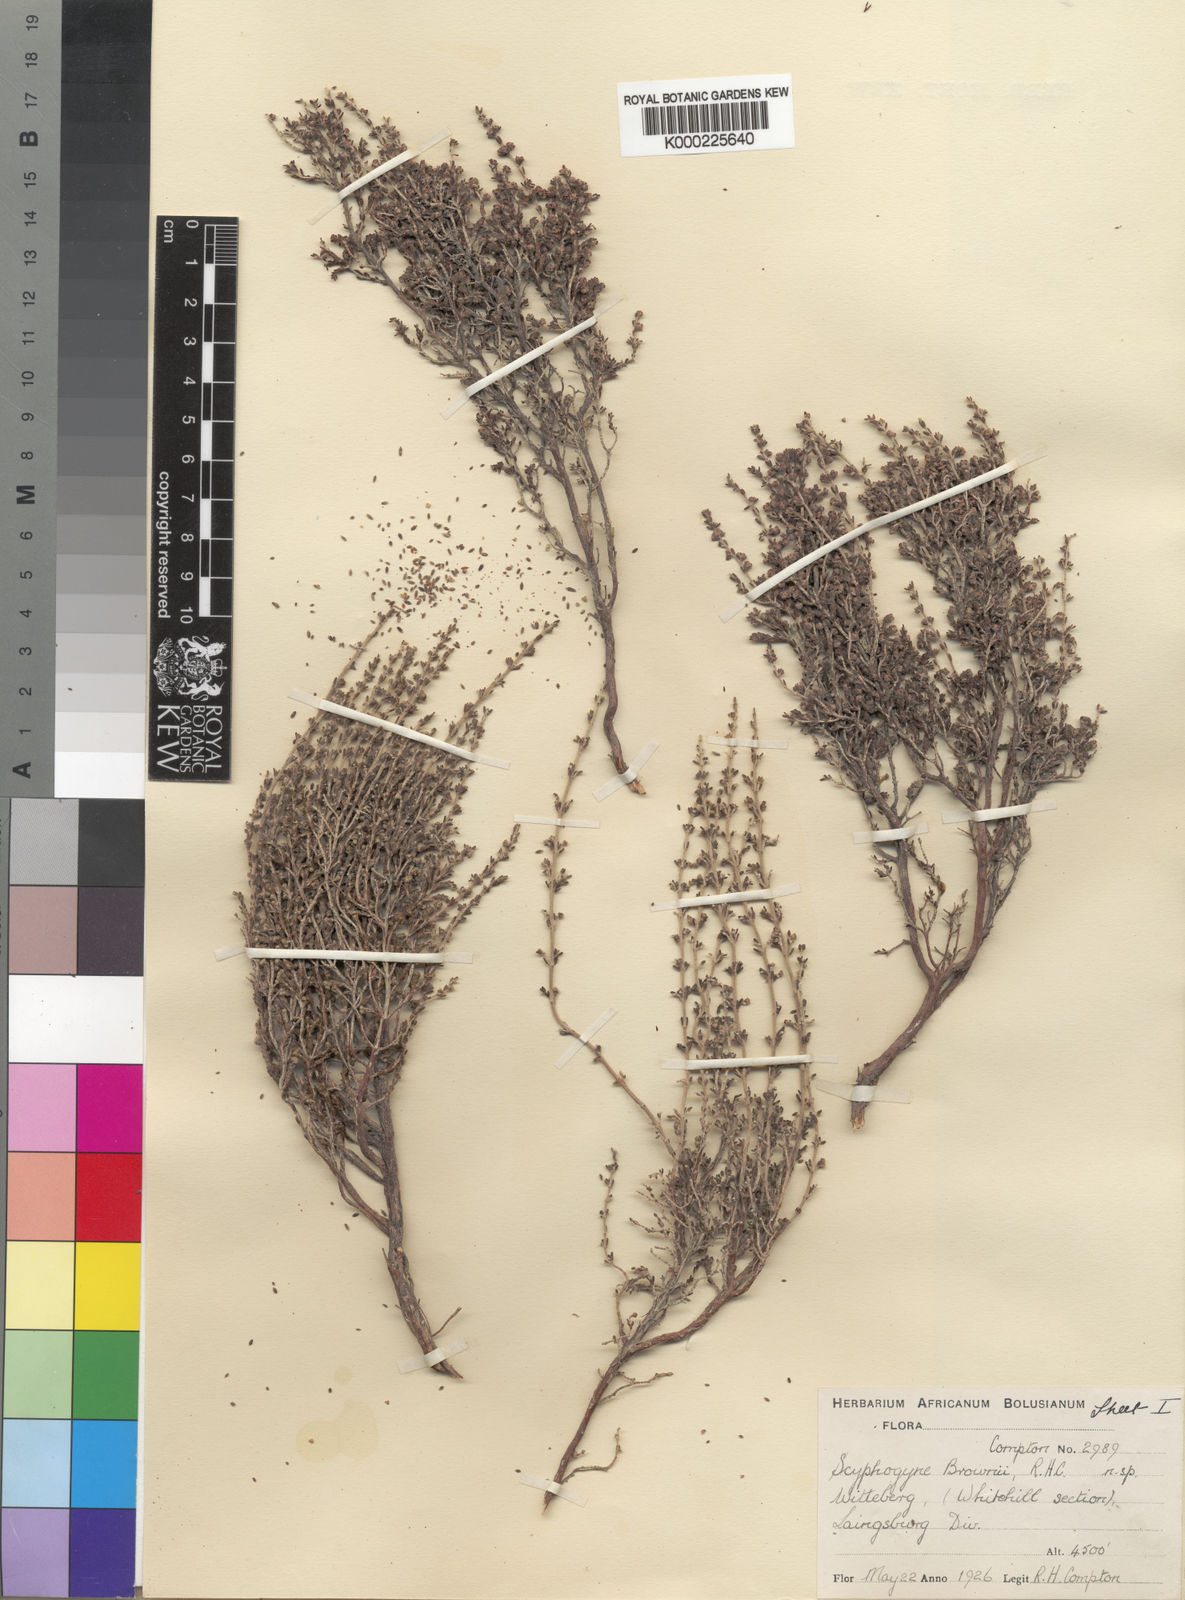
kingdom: Plantae
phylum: Tracheophyta
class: Magnoliopsida
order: Ericales
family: Ericaceae
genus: Erica
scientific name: Erica rigidula
